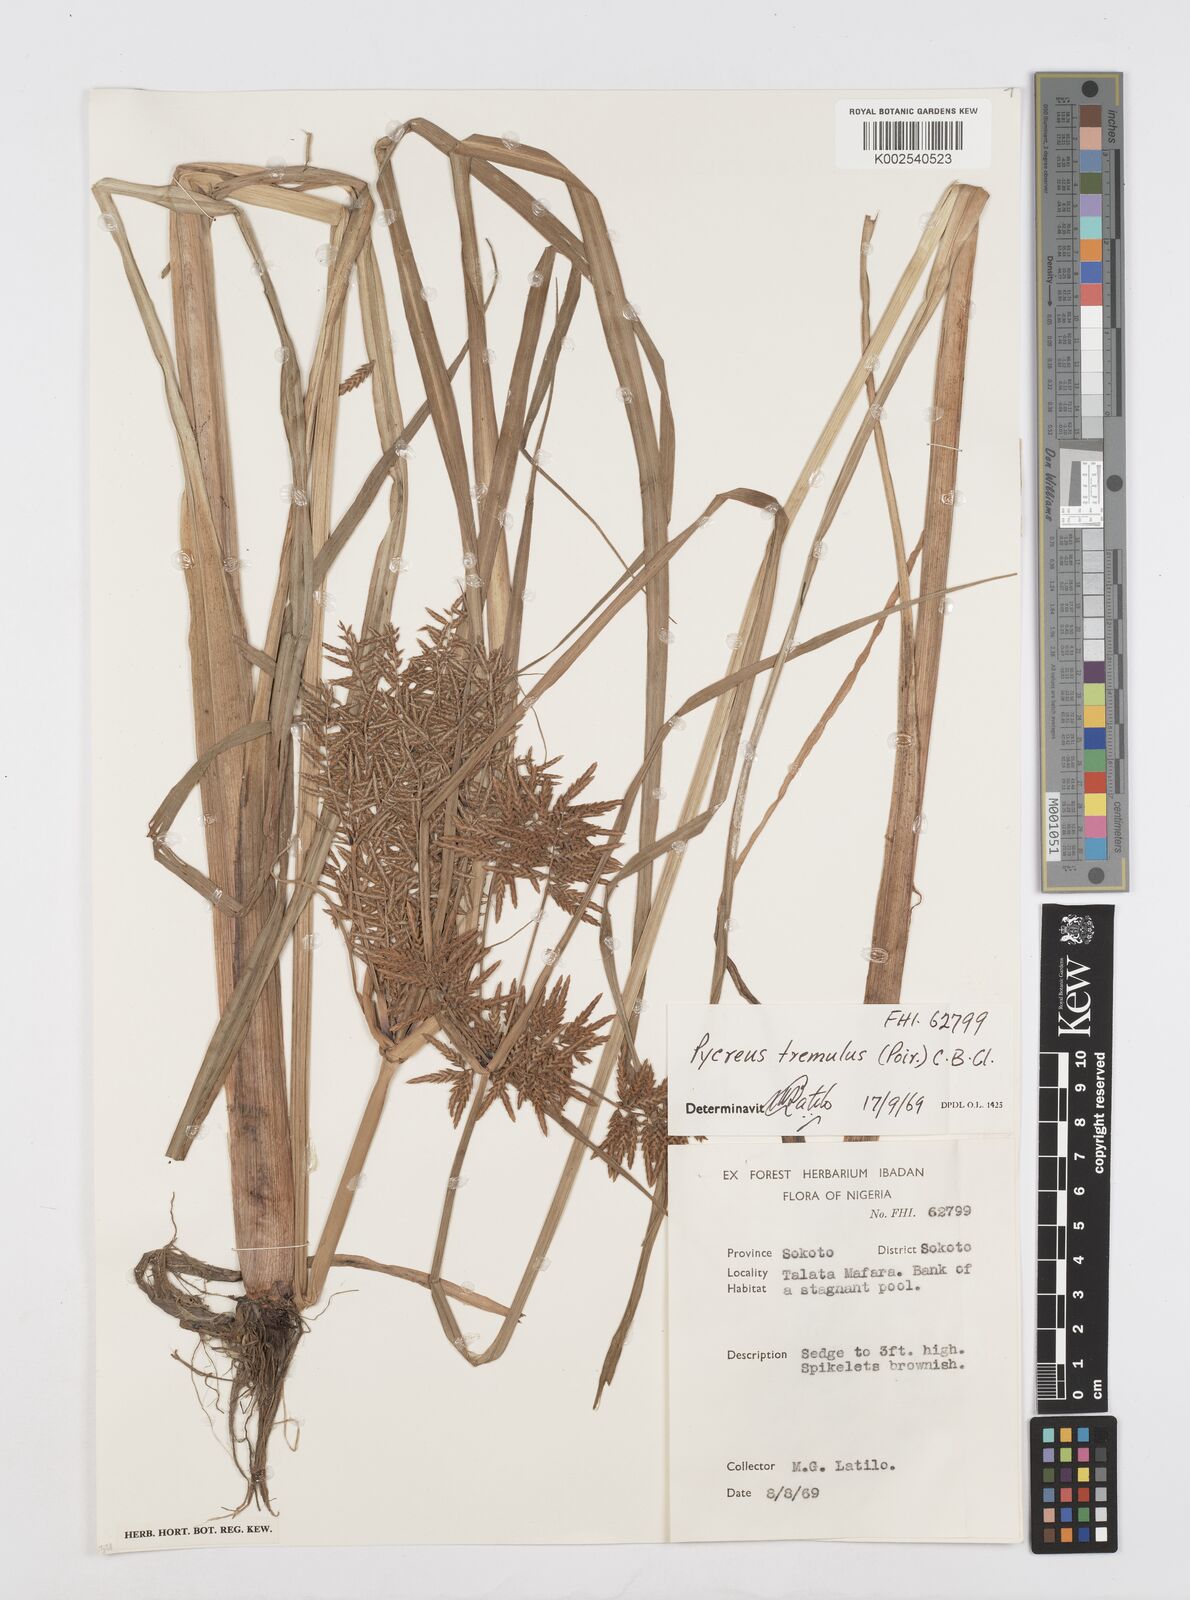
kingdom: Plantae
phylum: Tracheophyta
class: Liliopsida
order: Poales
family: Cyperaceae
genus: Cyperus
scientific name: Cyperus macrostachyos
